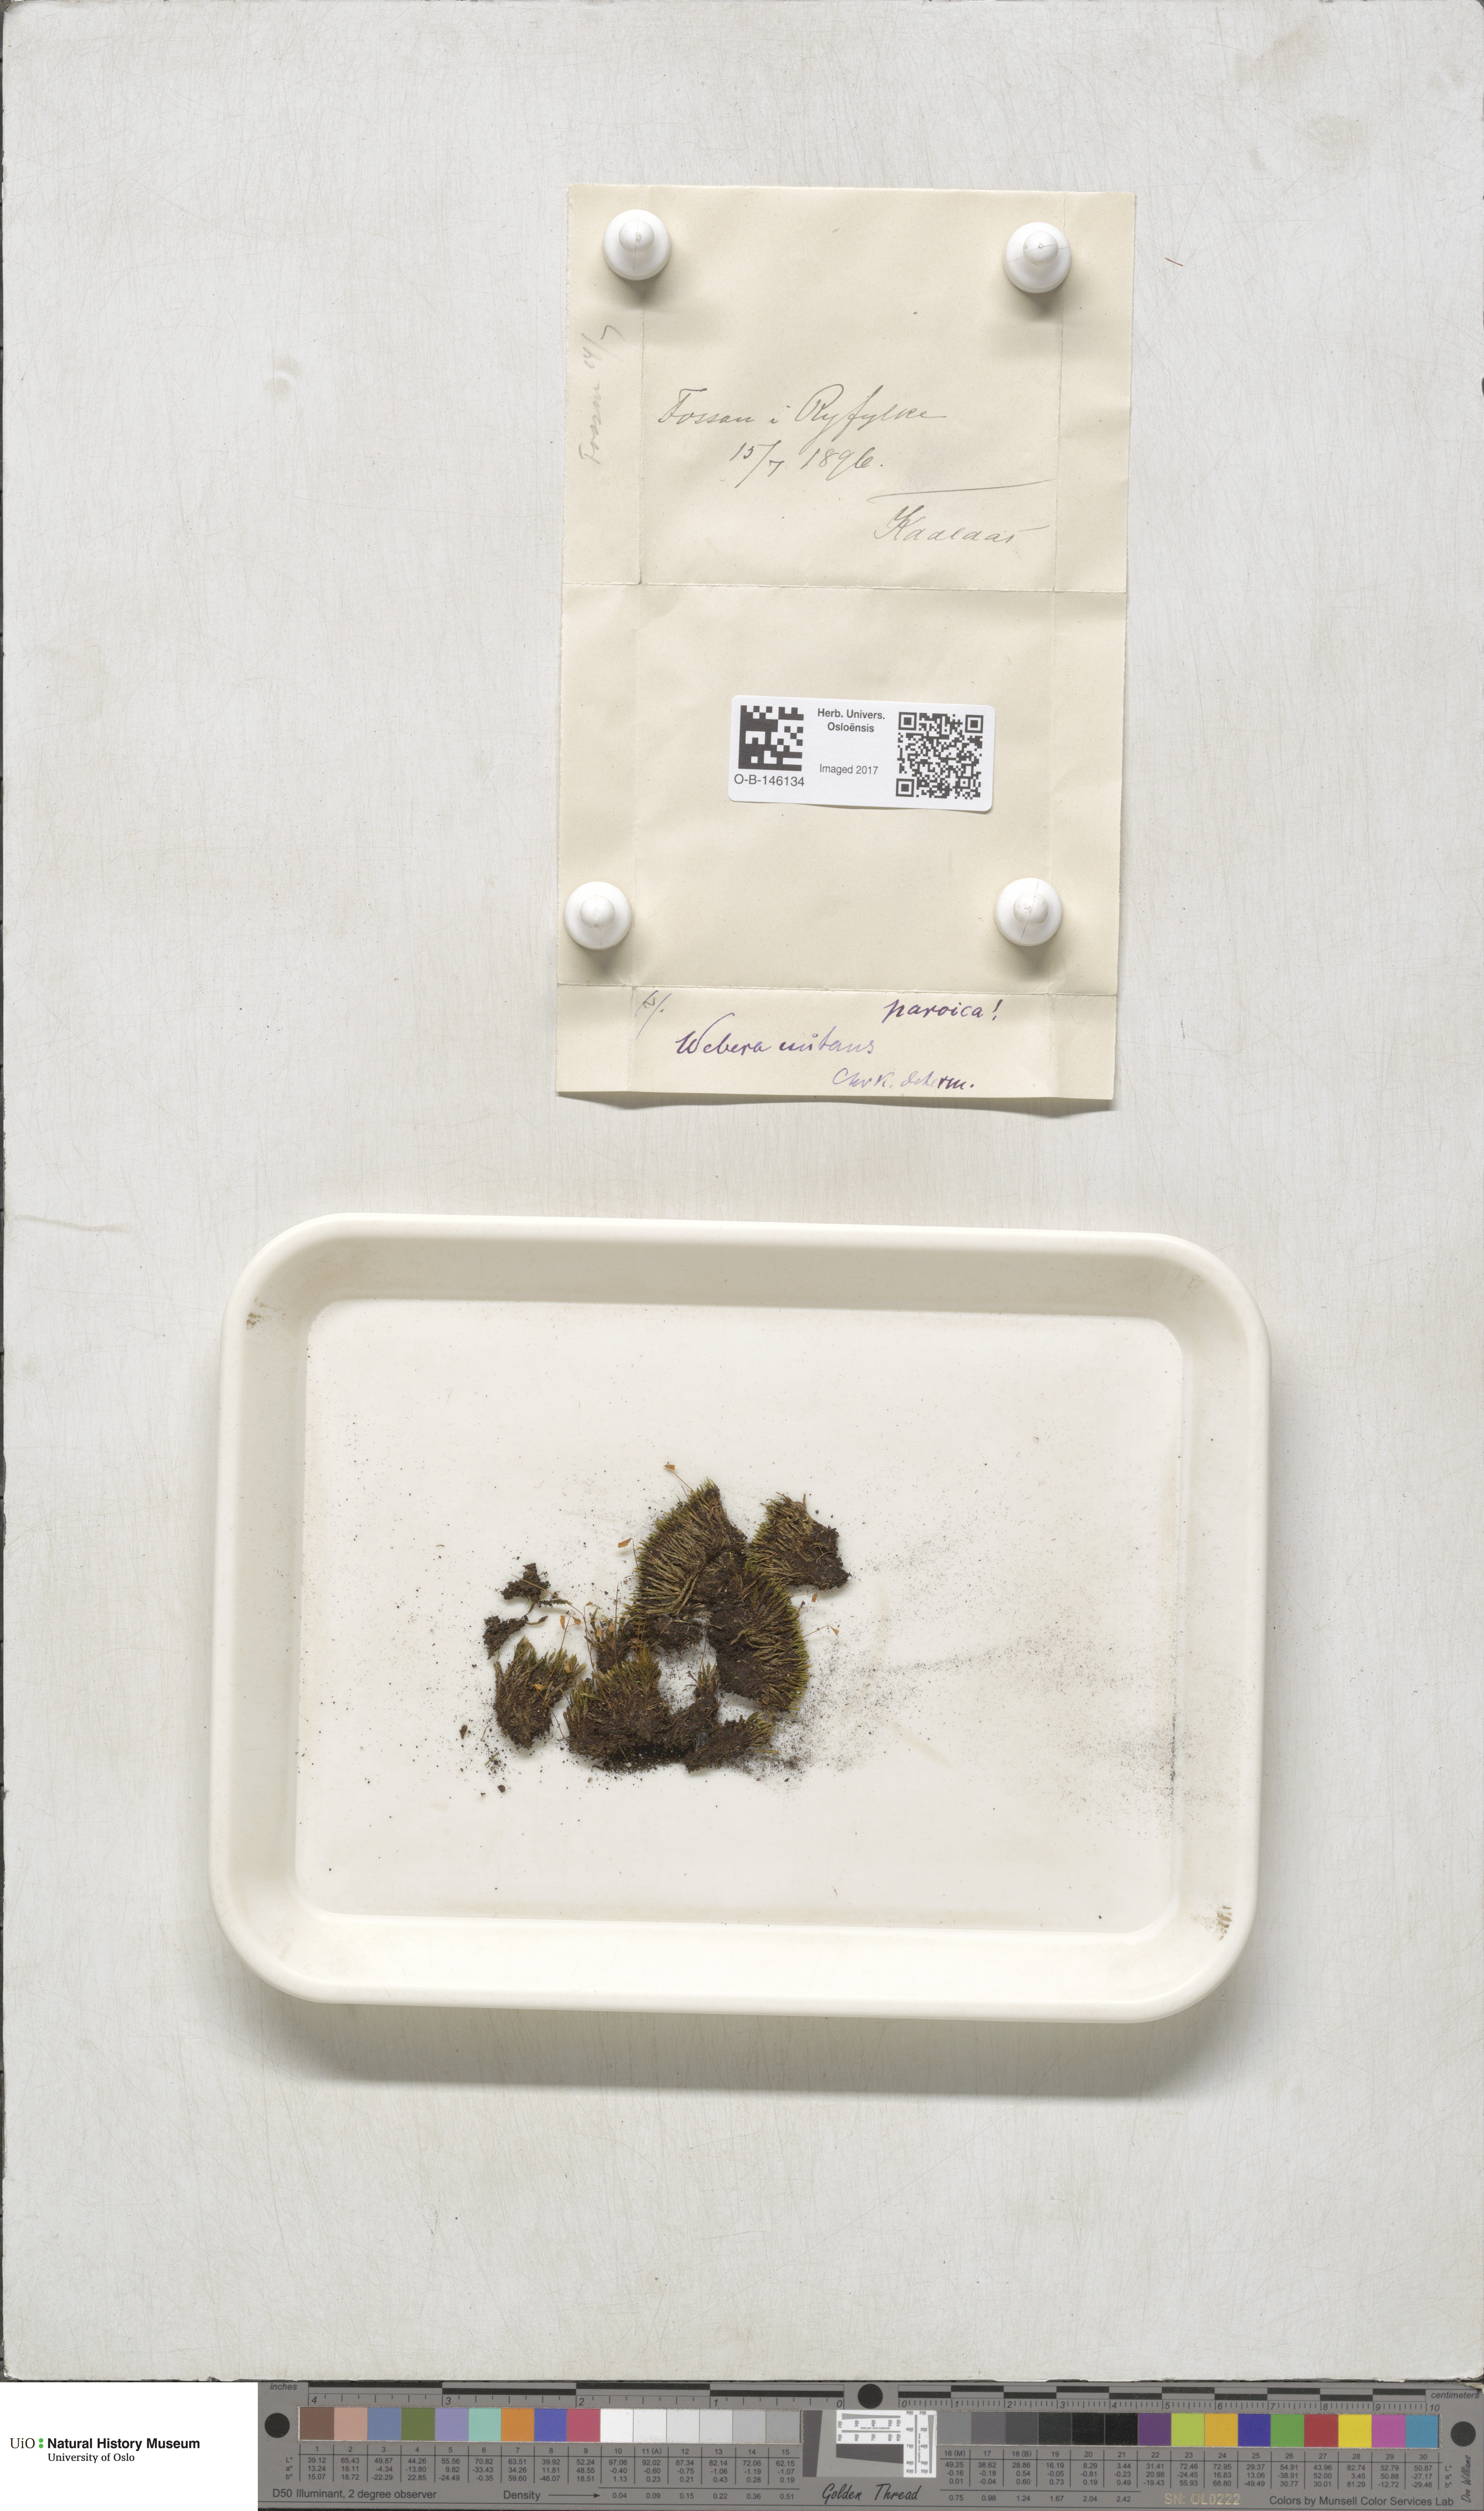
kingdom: Plantae
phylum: Bryophyta
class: Bryopsida
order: Bryales
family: Mniaceae
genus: Pohlia
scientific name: Pohlia nutans
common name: Nodding thread-moss
